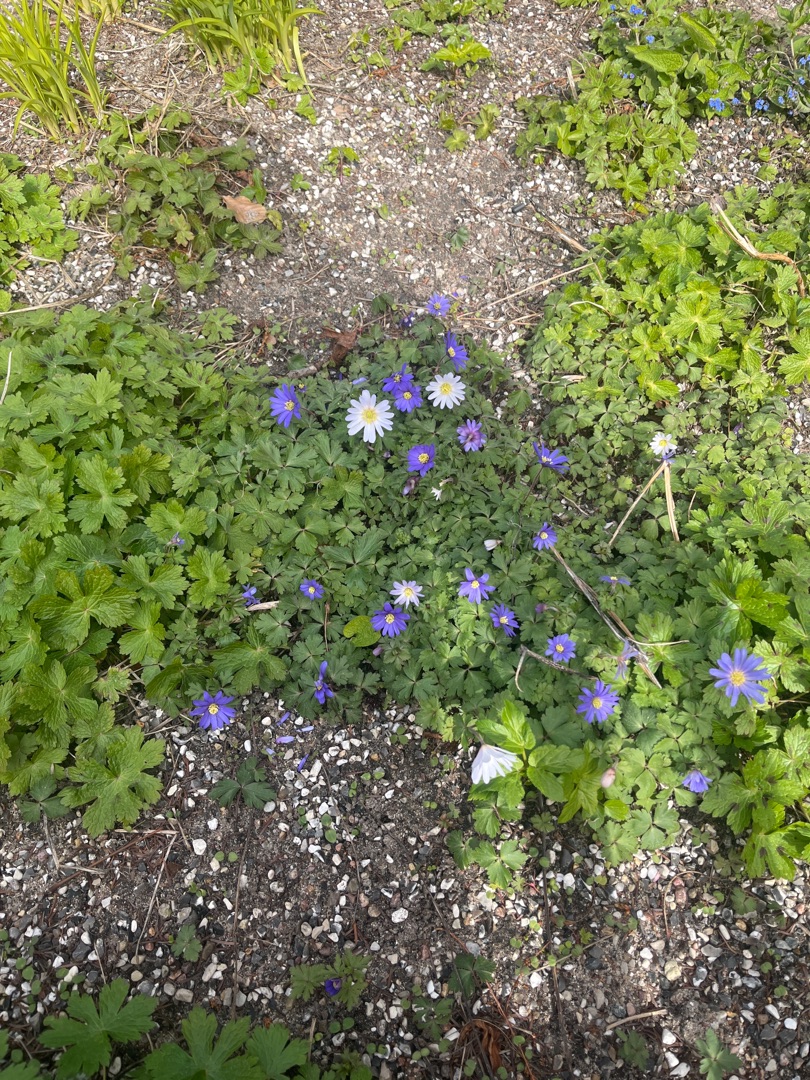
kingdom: Plantae
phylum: Tracheophyta
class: Magnoliopsida
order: Ranunculales
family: Ranunculaceae
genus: Anemone
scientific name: Anemone blanda
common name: Balkan-anemone
